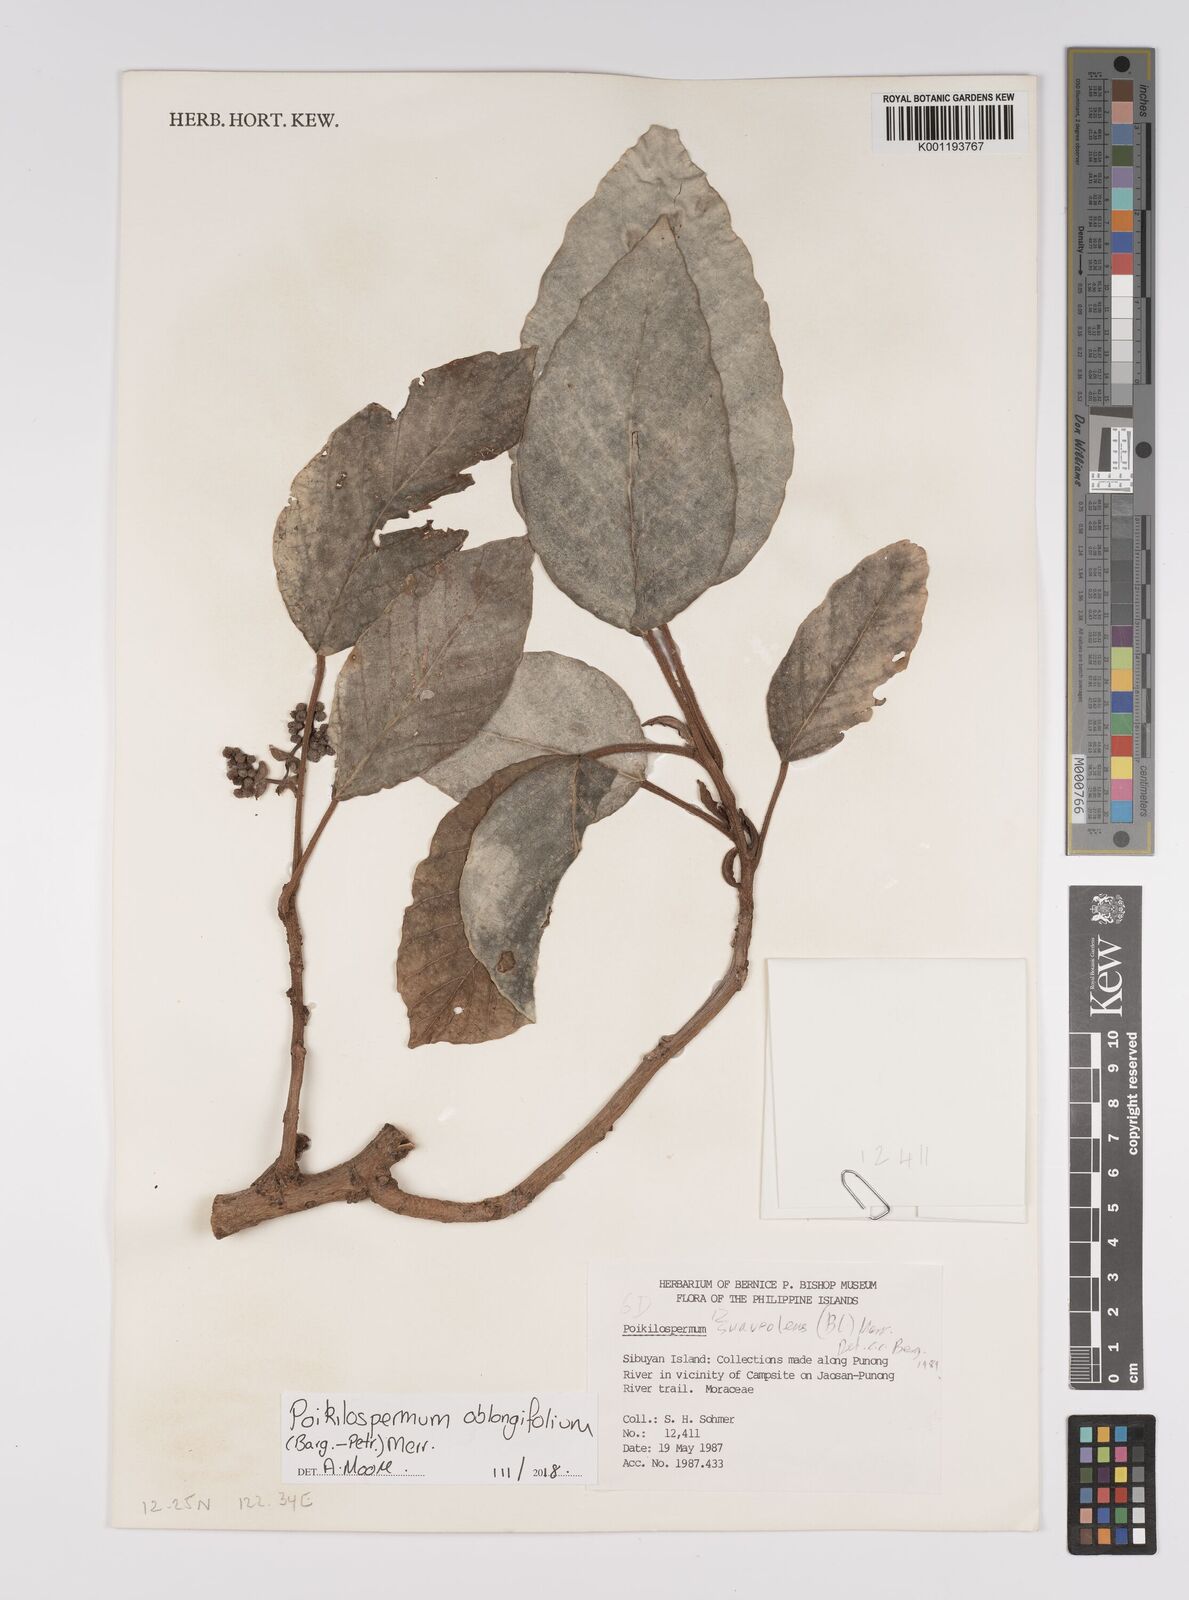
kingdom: Plantae
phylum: Tracheophyta
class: Magnoliopsida
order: Rosales
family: Urticaceae
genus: Poikilospermum
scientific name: Poikilospermum oblongifolium
